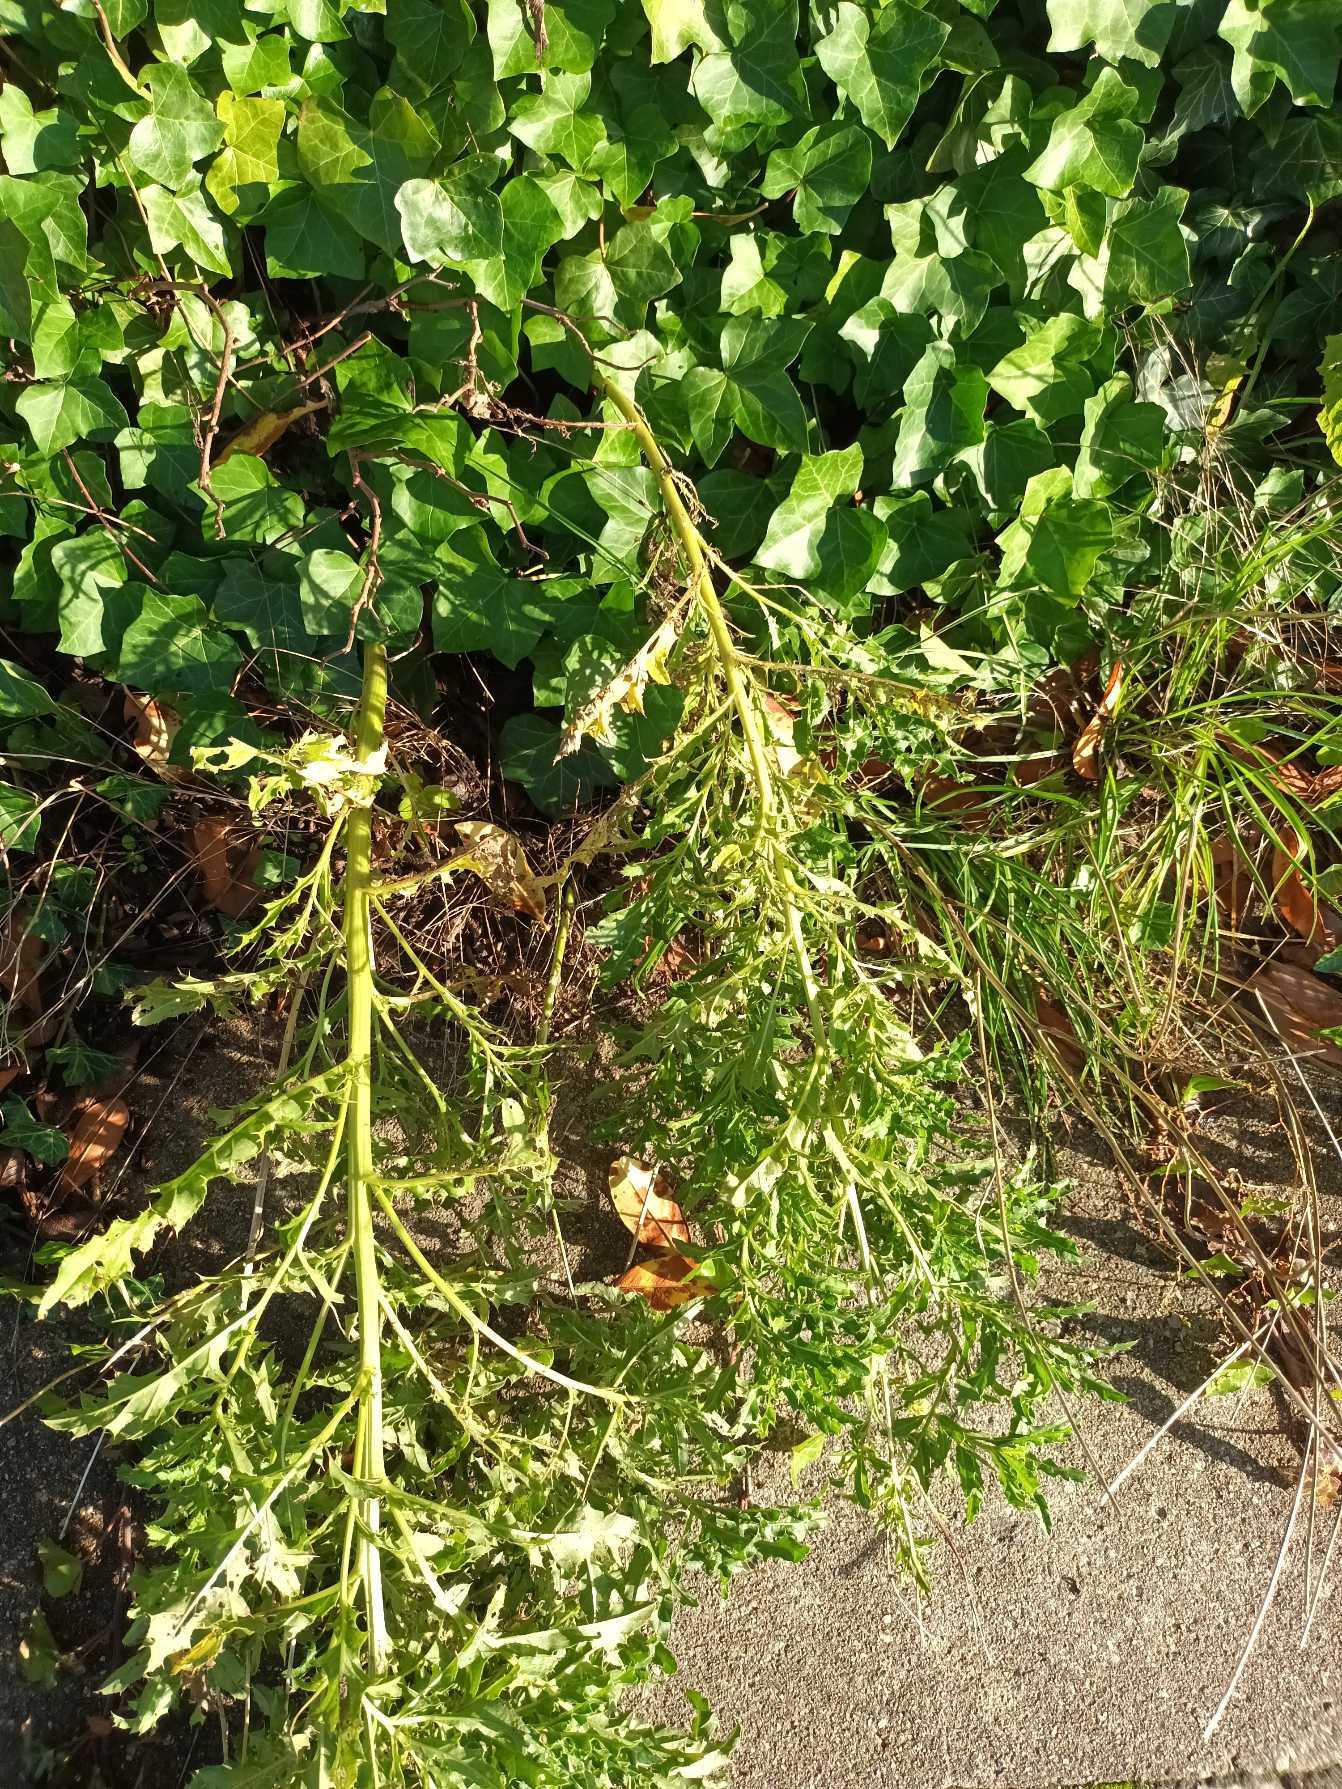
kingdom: Plantae
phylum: Tracheophyta
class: Magnoliopsida
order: Asterales
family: Asteraceae
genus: Cirsium
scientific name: Cirsium arvense
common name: Ager-tidsel
